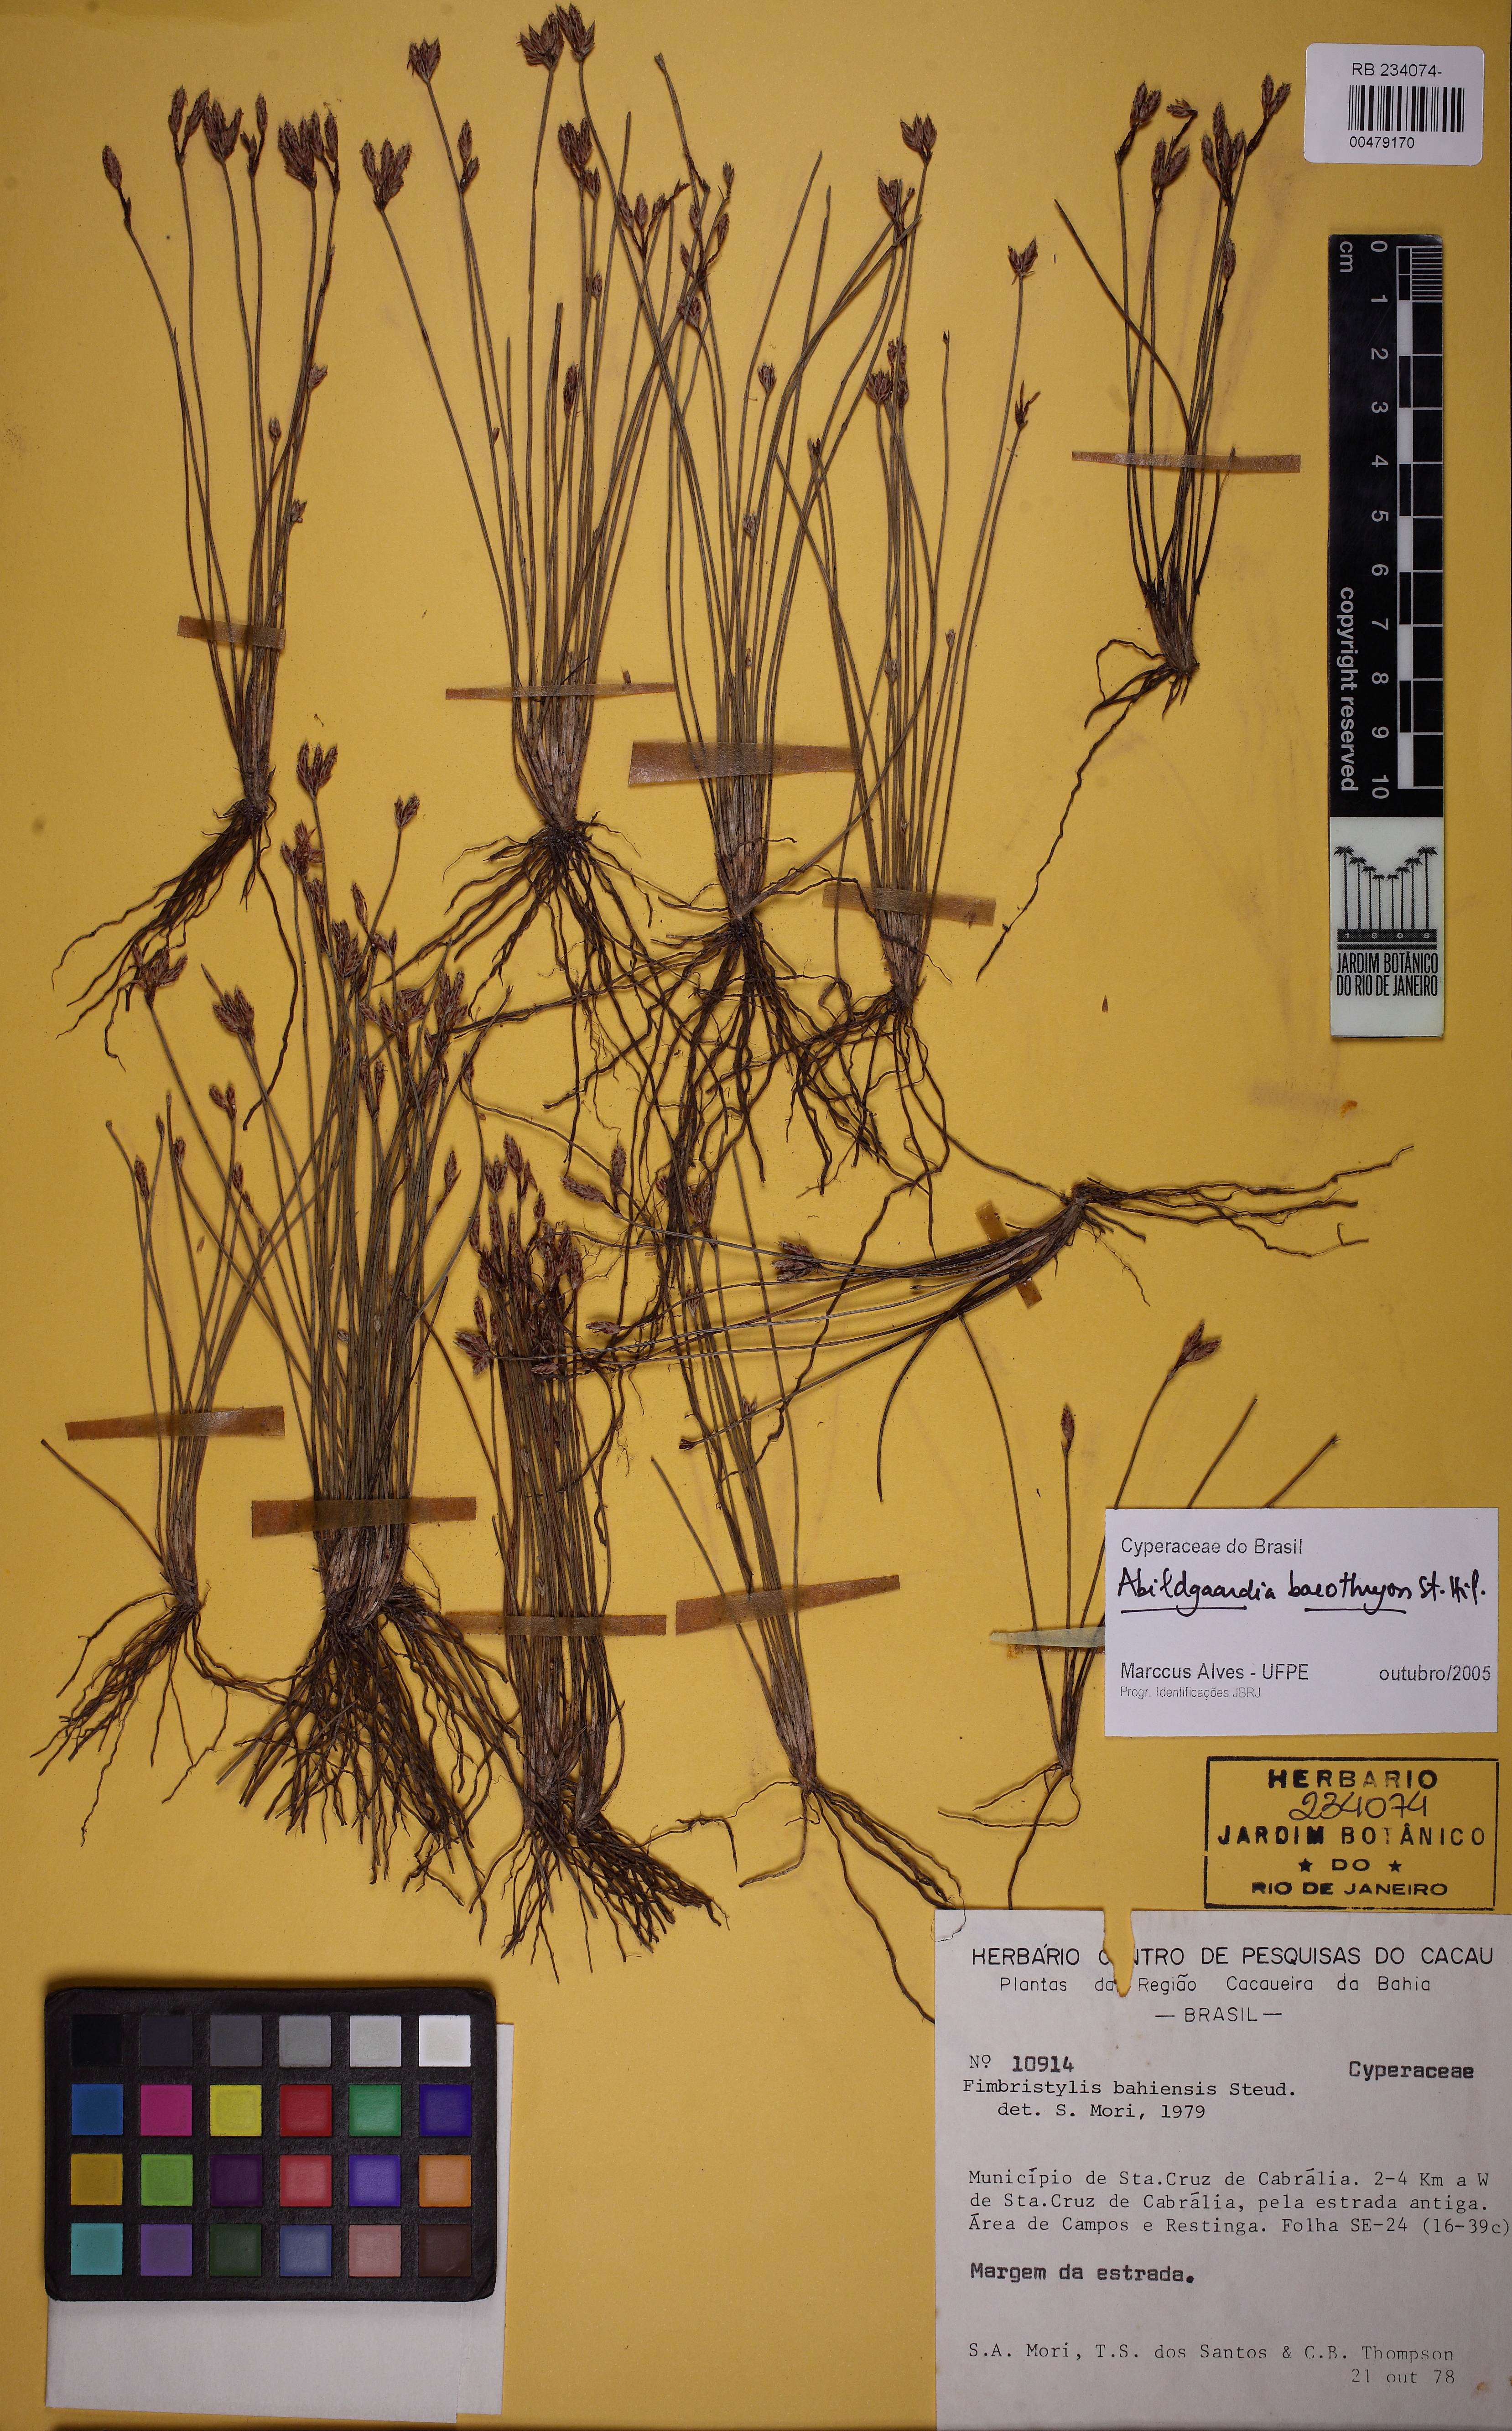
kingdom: Plantae
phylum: Tracheophyta
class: Liliopsida
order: Poales
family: Cyperaceae
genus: Fimbristylis
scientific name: Fimbristylis bahiensis
